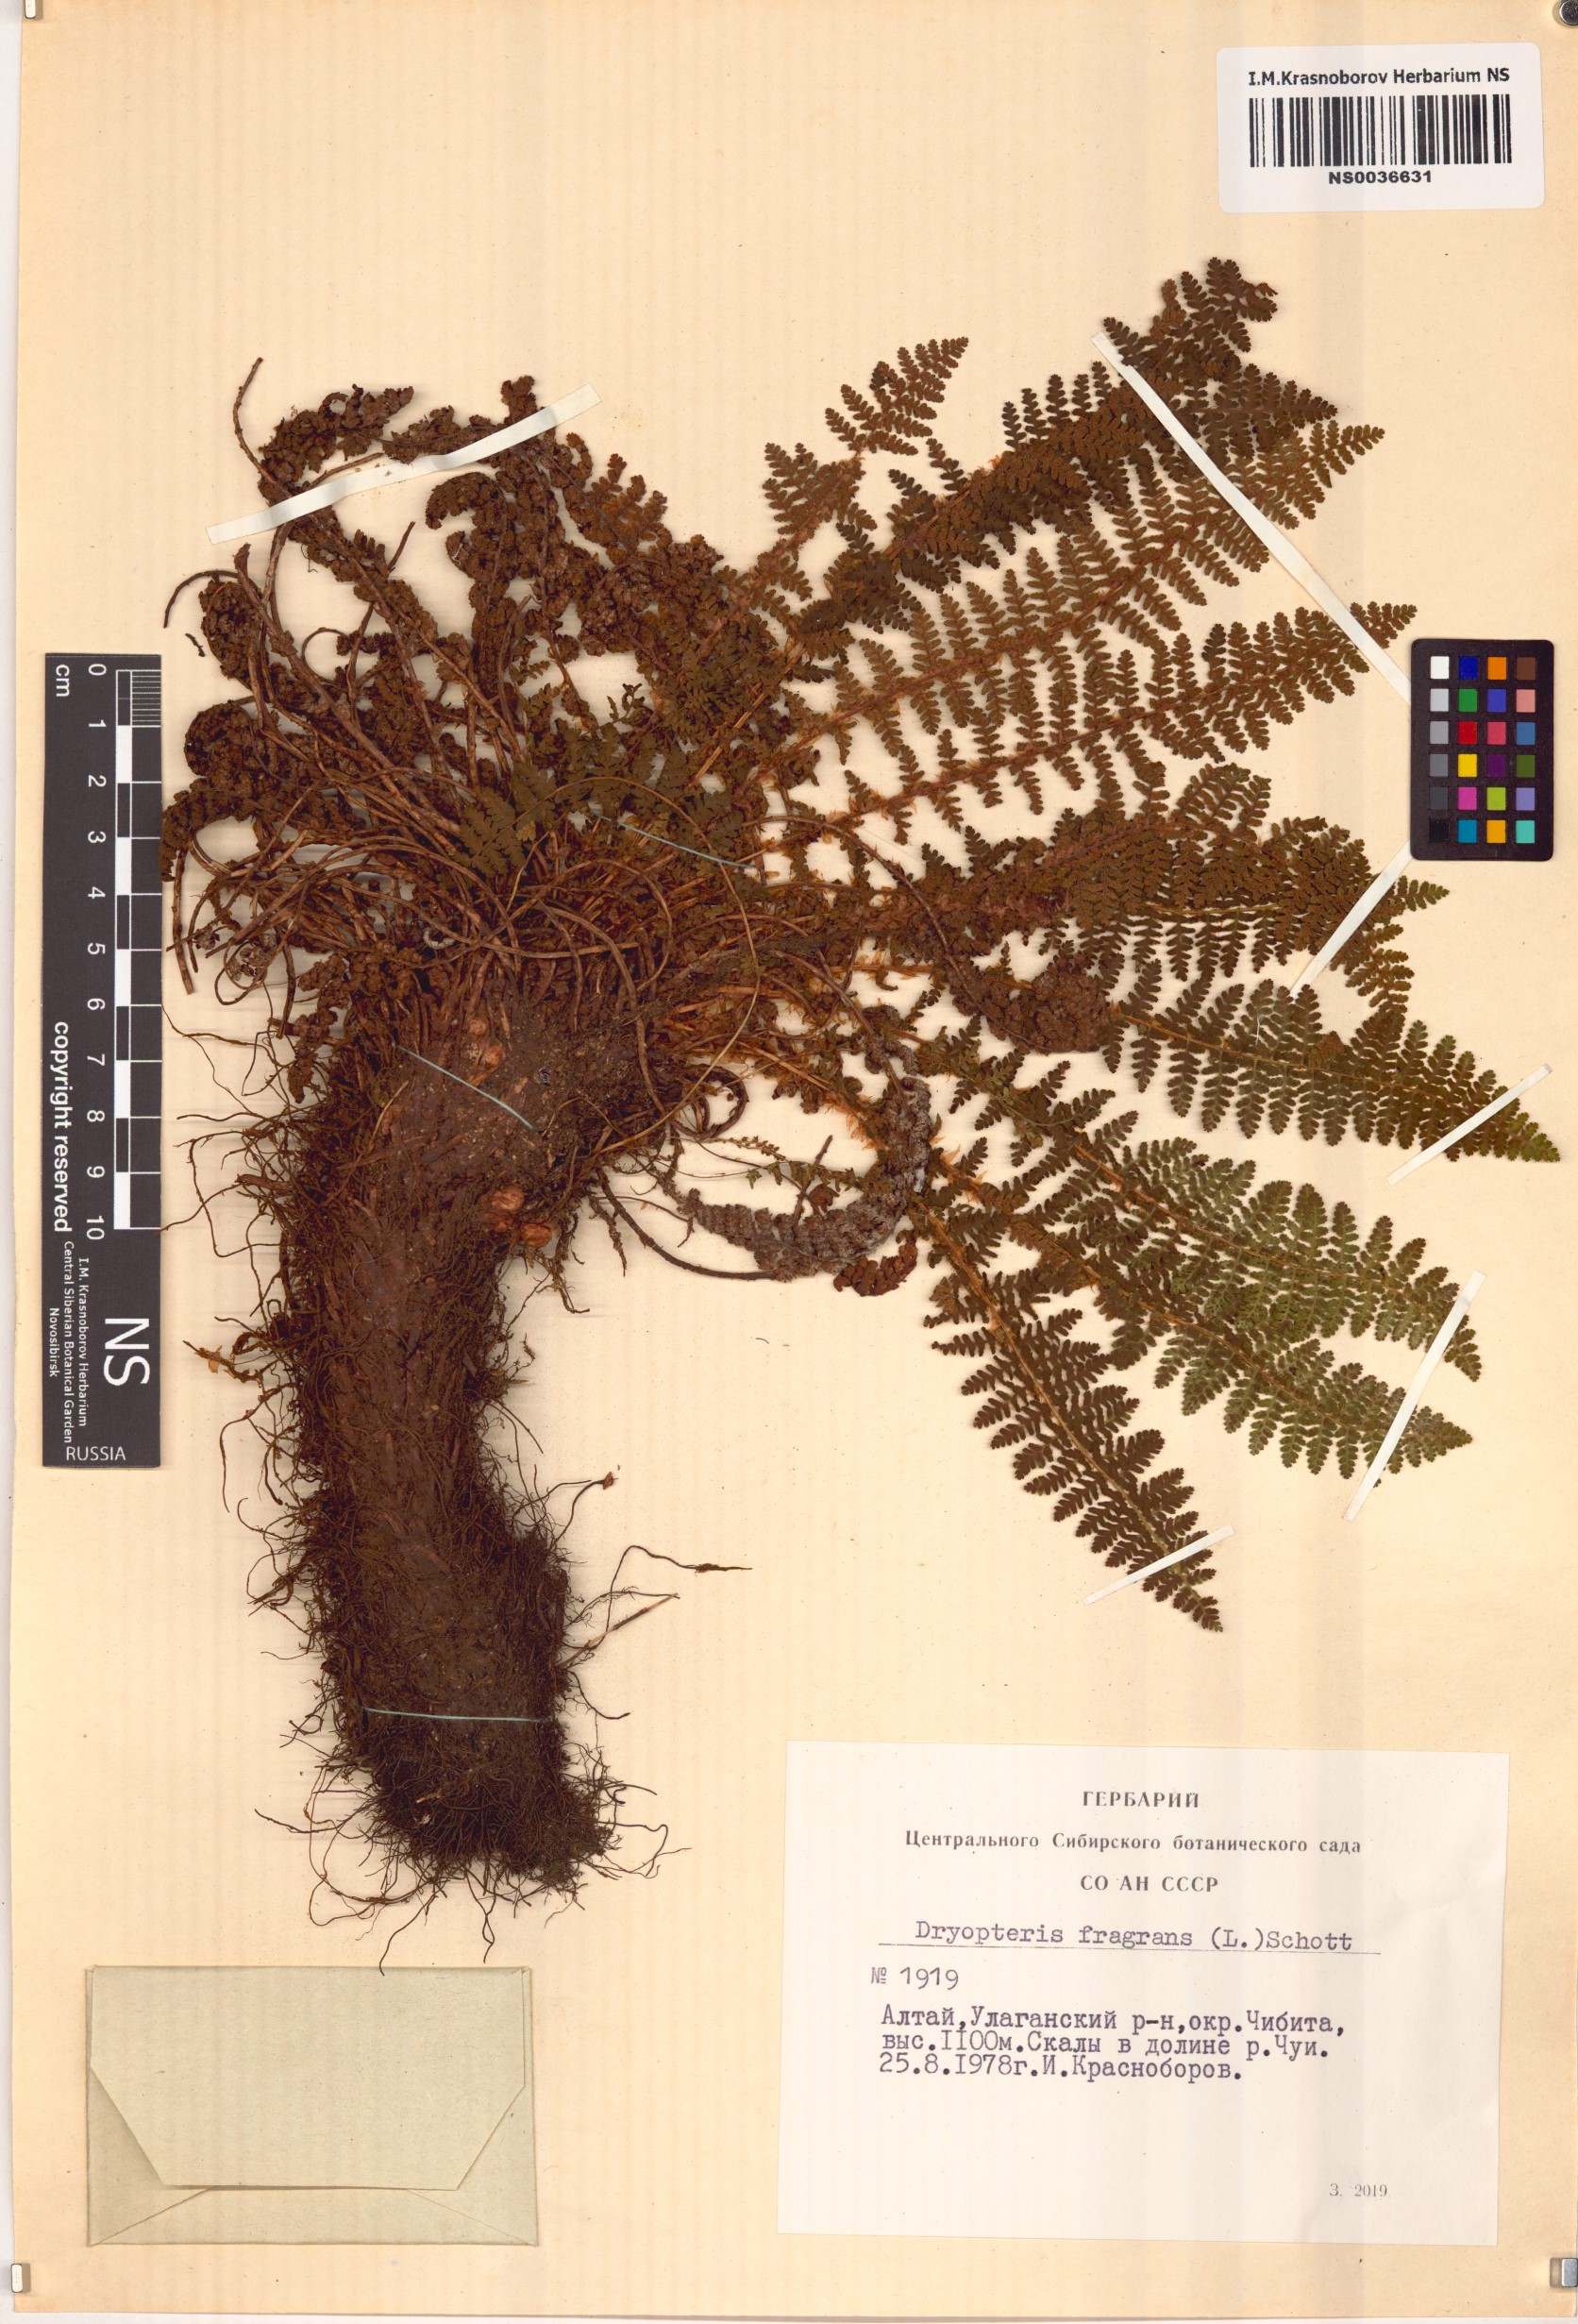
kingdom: Plantae
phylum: Tracheophyta
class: Polypodiopsida
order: Polypodiales
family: Dryopteridaceae
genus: Dryopteris
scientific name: Dryopteris fragrans
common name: Fragrant wood fern
